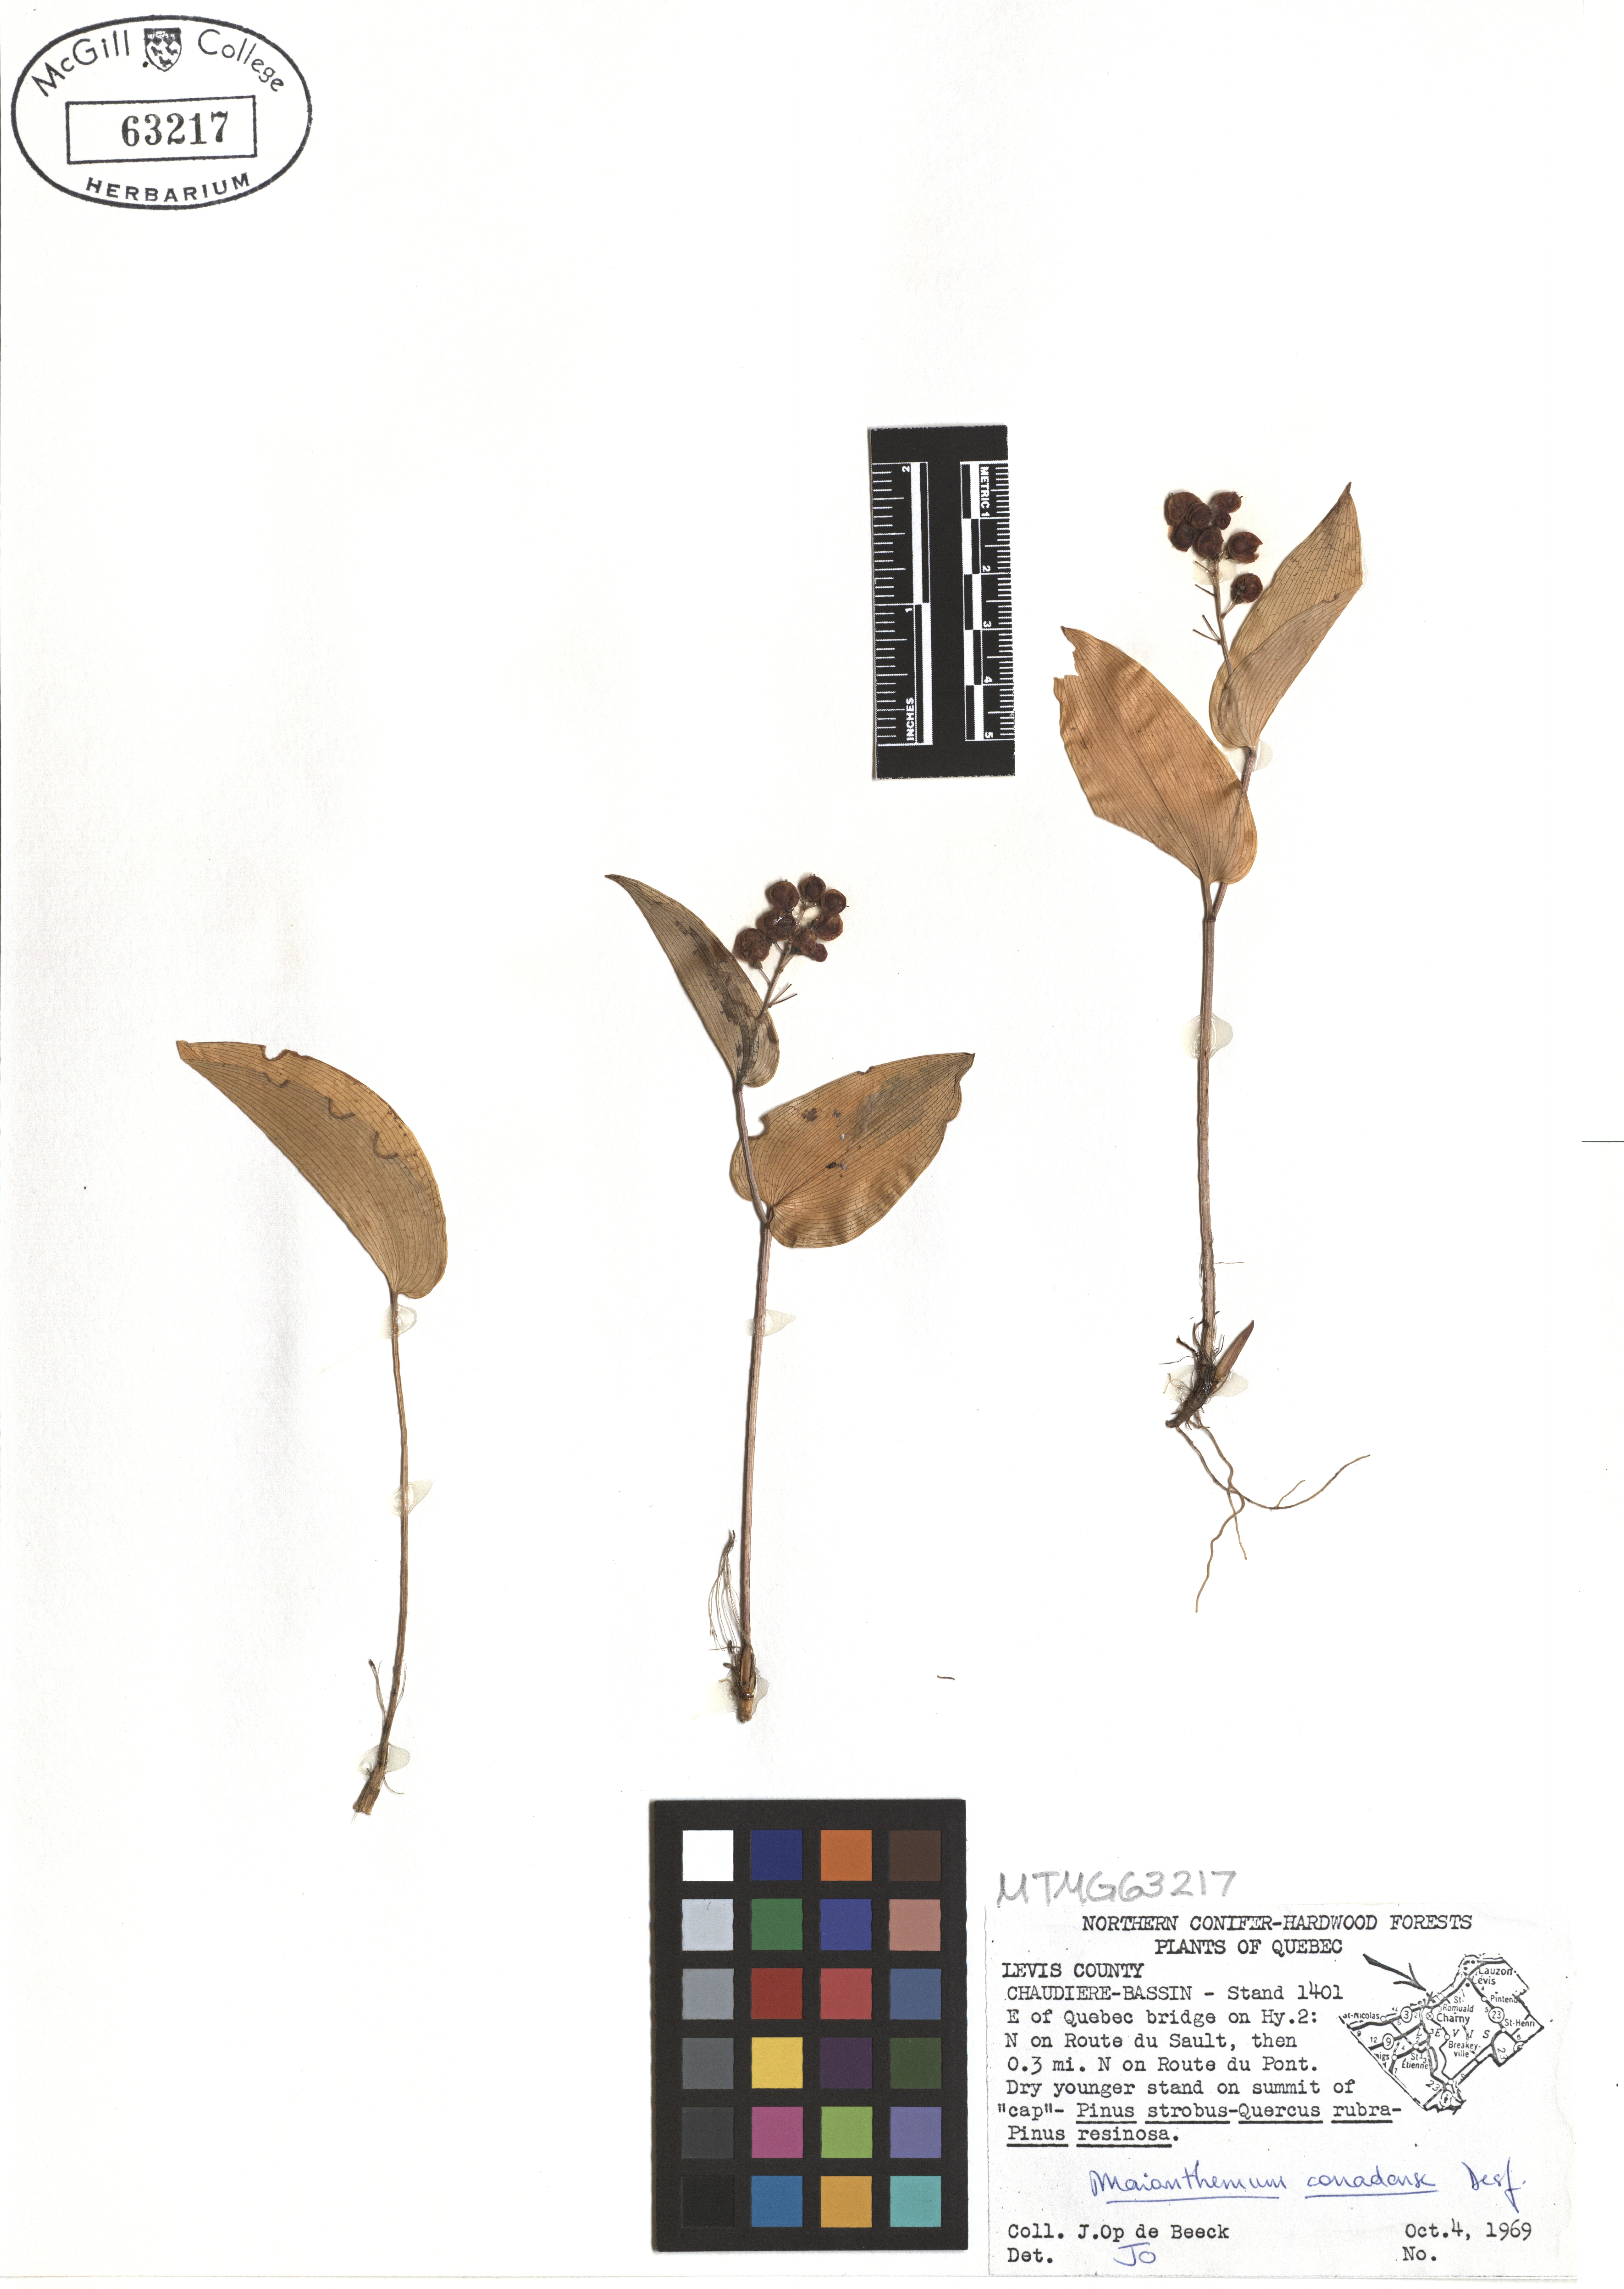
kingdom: Plantae
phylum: Tracheophyta
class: Liliopsida
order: Asparagales
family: Asparagaceae
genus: Maianthemum
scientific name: Maianthemum canadense
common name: False lily-of-the-valley
